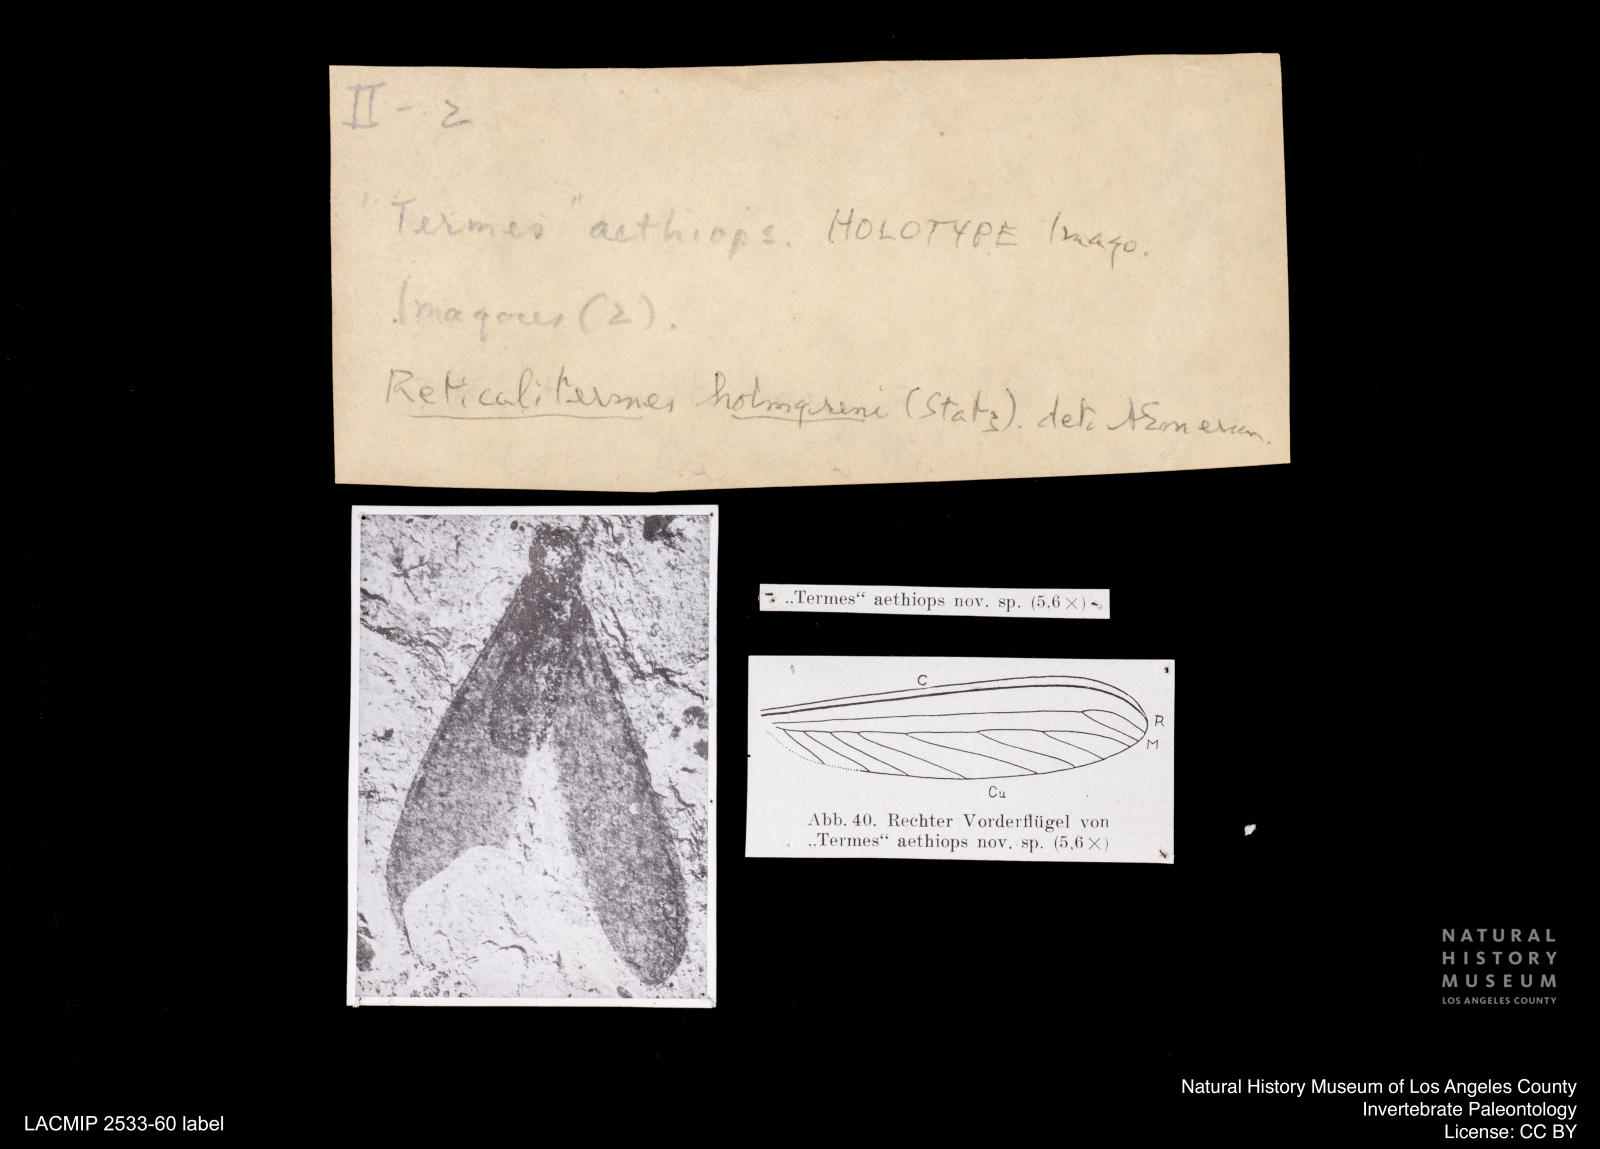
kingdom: Animalia
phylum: Arthropoda
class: Insecta
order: Blattodea
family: Rhinotermitidae
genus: Reticulitermes
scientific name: Reticulitermes holmgreni
